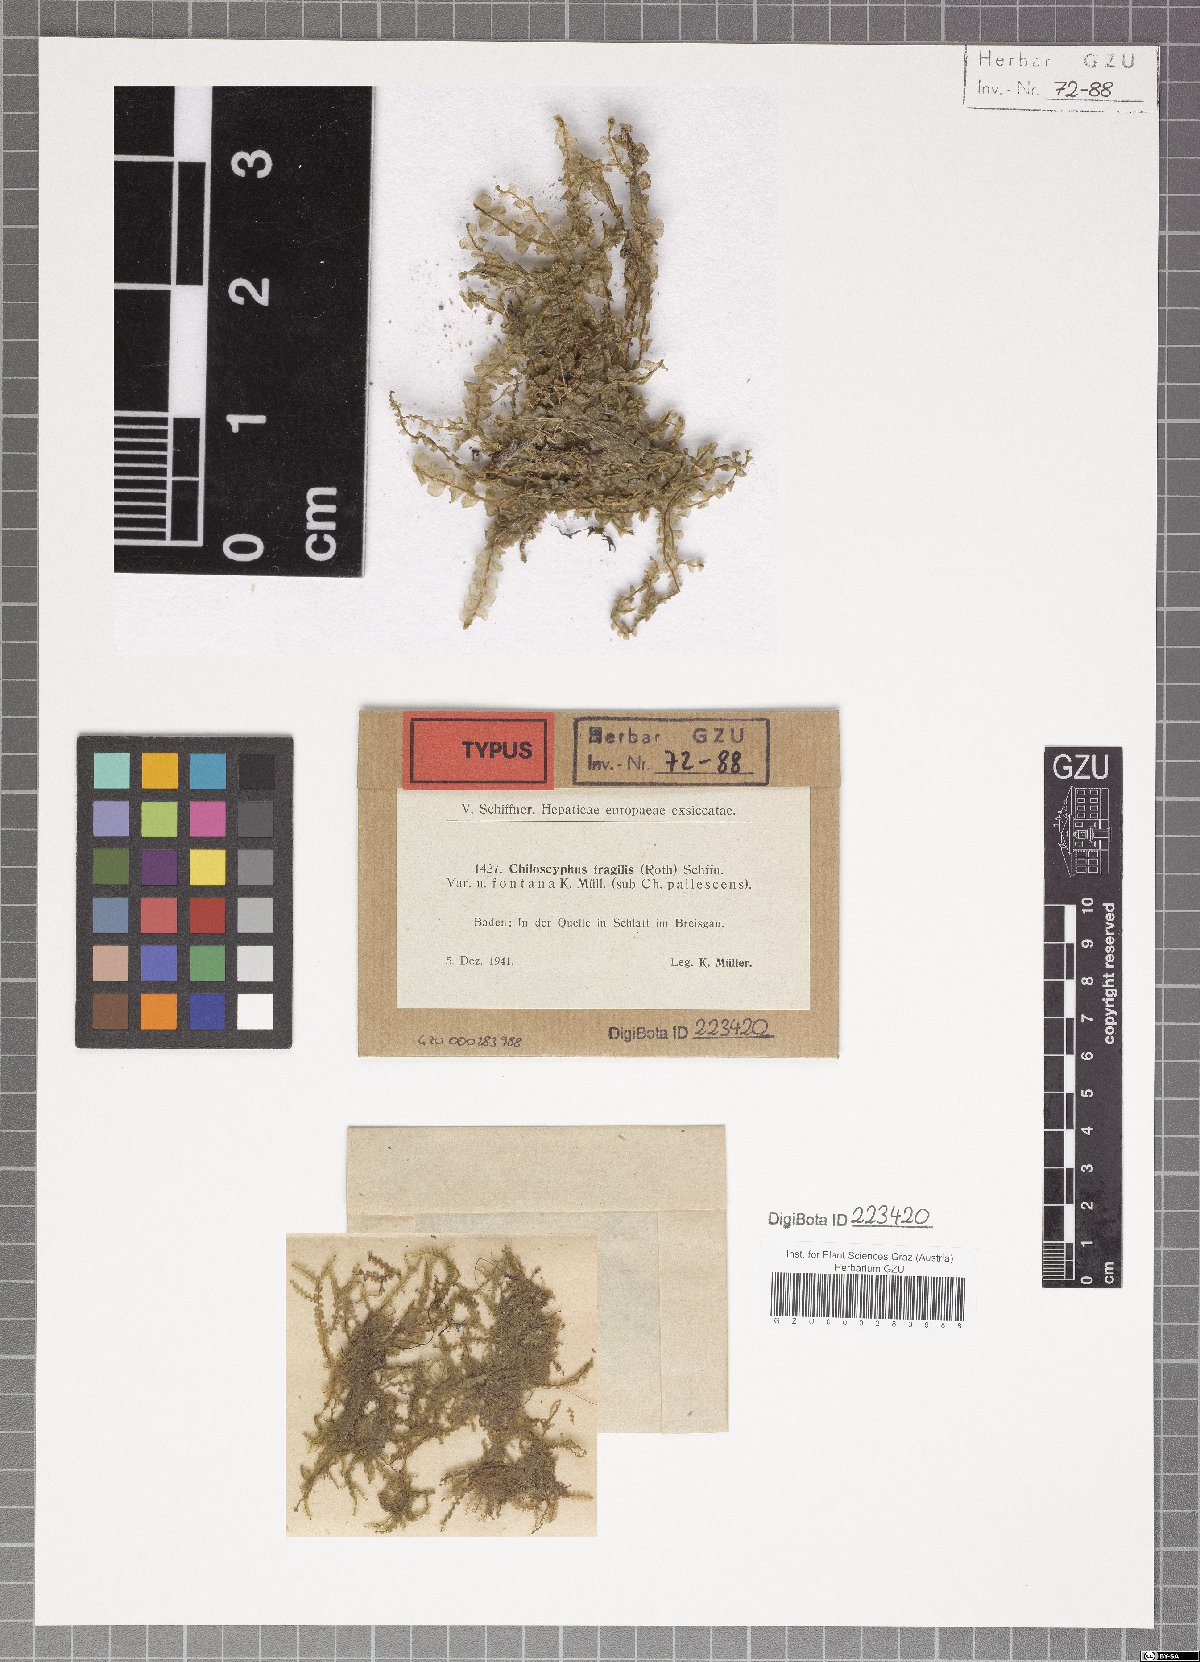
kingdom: Plantae
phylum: Marchantiophyta
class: Jungermanniopsida
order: Jungermanniales
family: Lophocoleaceae
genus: Chiloscyphus
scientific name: Chiloscyphus pallescens
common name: St winifrid's other moss
